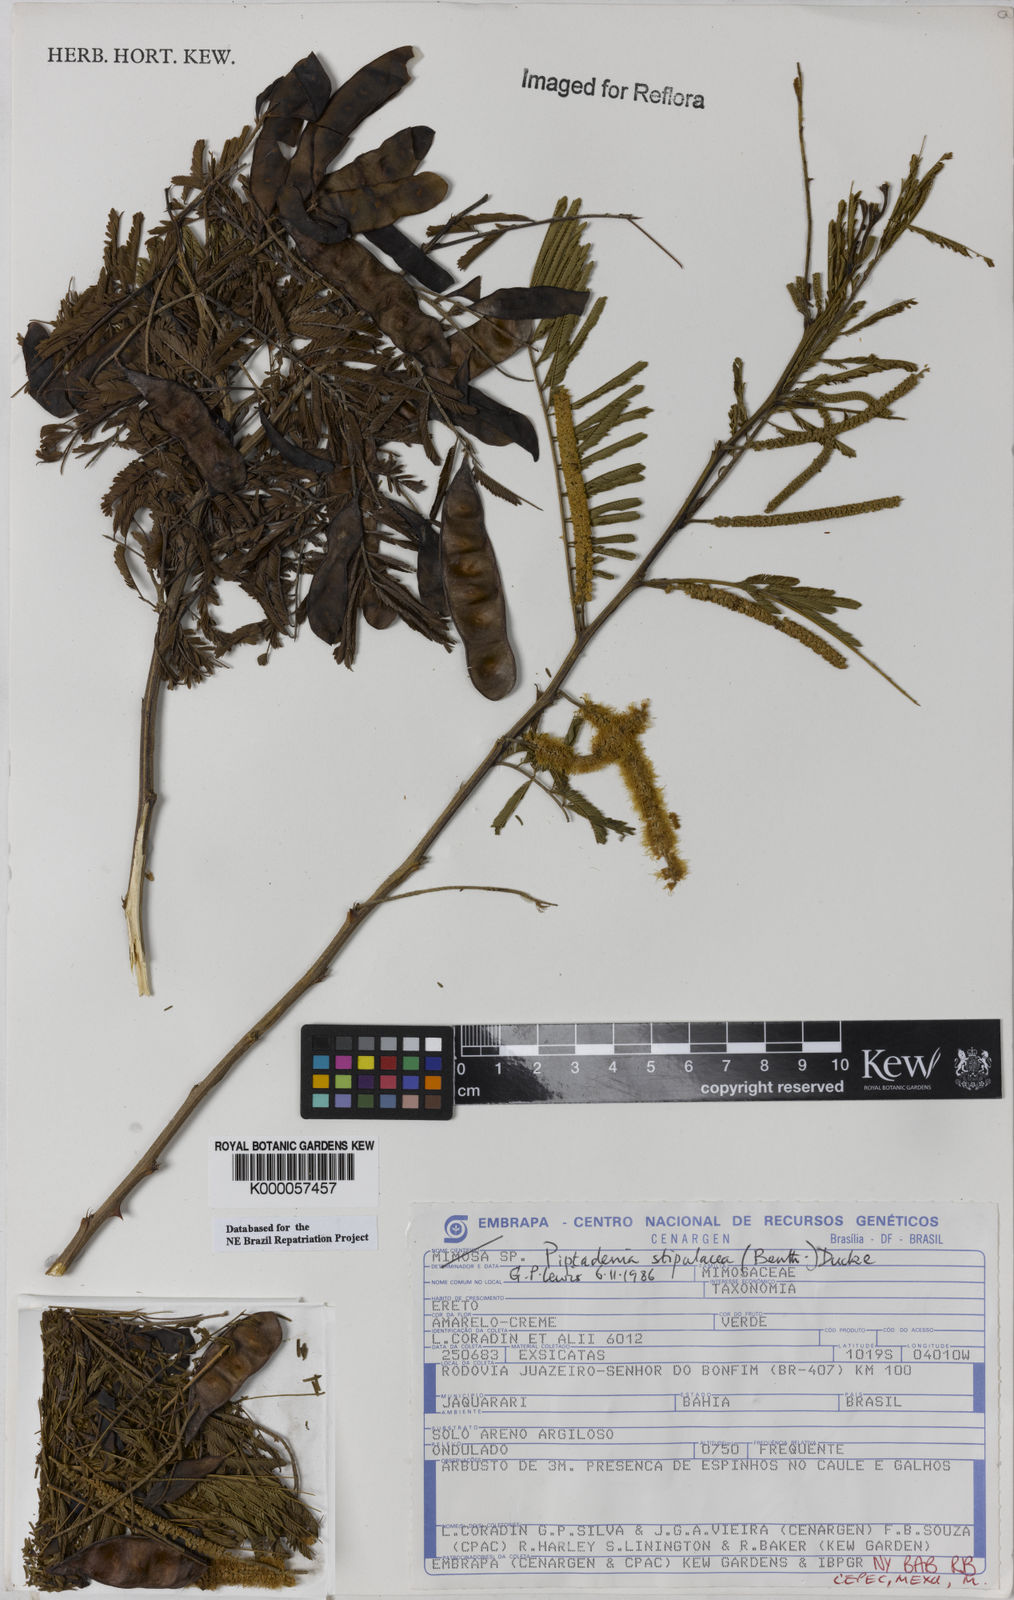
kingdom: Plantae
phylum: Tracheophyta
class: Magnoliopsida
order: Fabales
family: Fabaceae
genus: Piptadenia
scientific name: Piptadenia retusa
